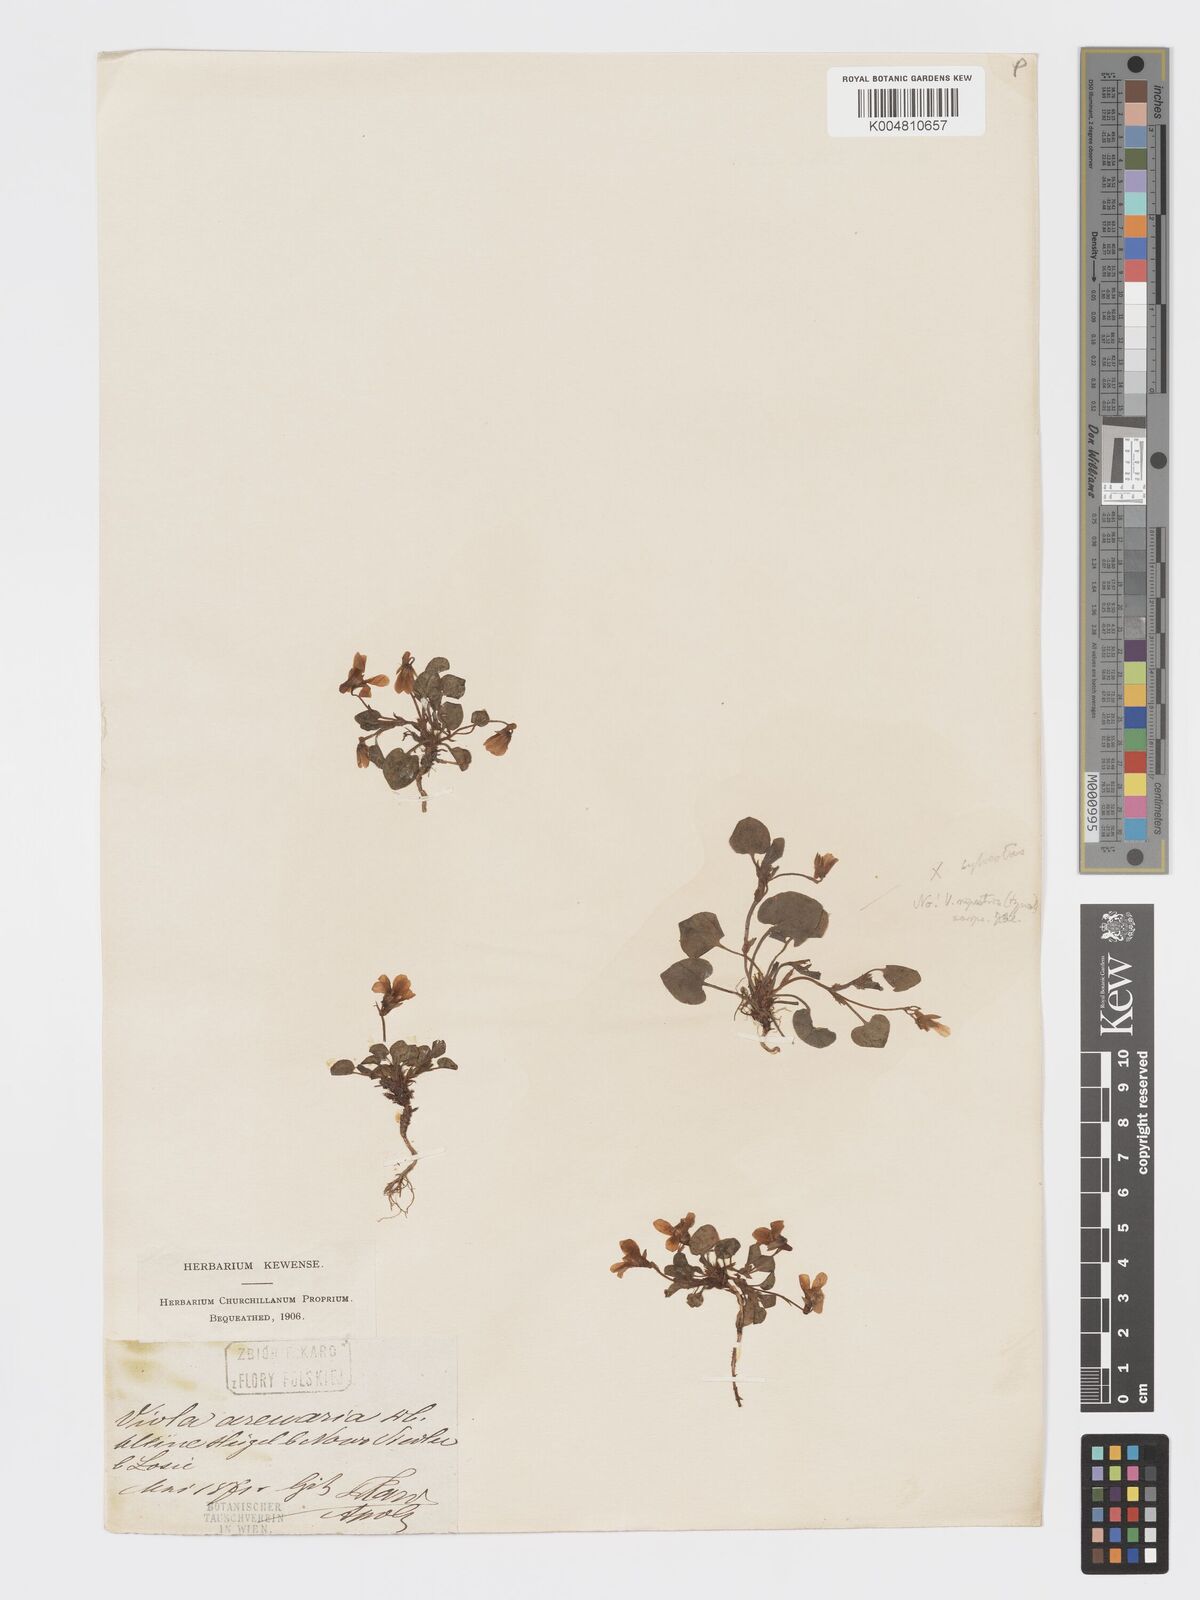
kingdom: Plantae
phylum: Tracheophyta
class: Magnoliopsida
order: Malpighiales
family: Violaceae
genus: Viola
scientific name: Viola rupestris
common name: Teesdale violet
